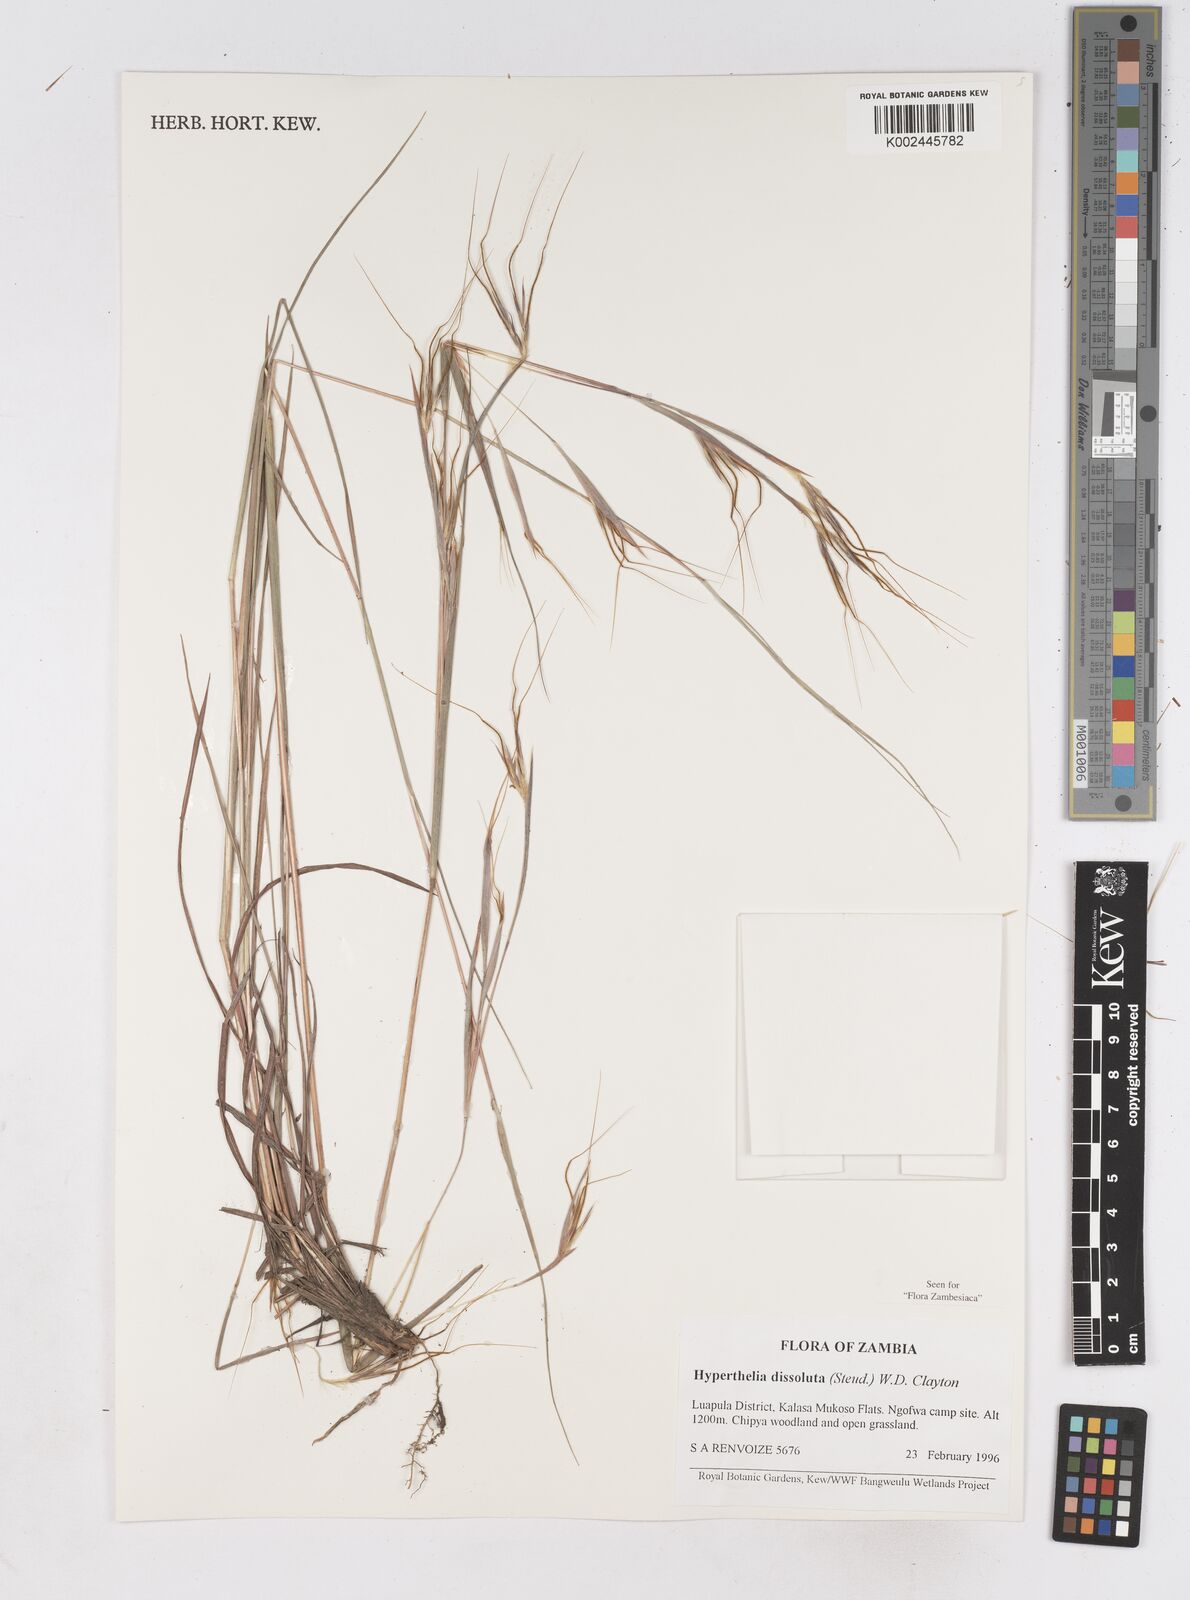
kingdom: Plantae
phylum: Tracheophyta
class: Liliopsida
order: Poales
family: Poaceae
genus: Hyperthelia
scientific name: Hyperthelia dissoluta
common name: Yellow thatching grass
